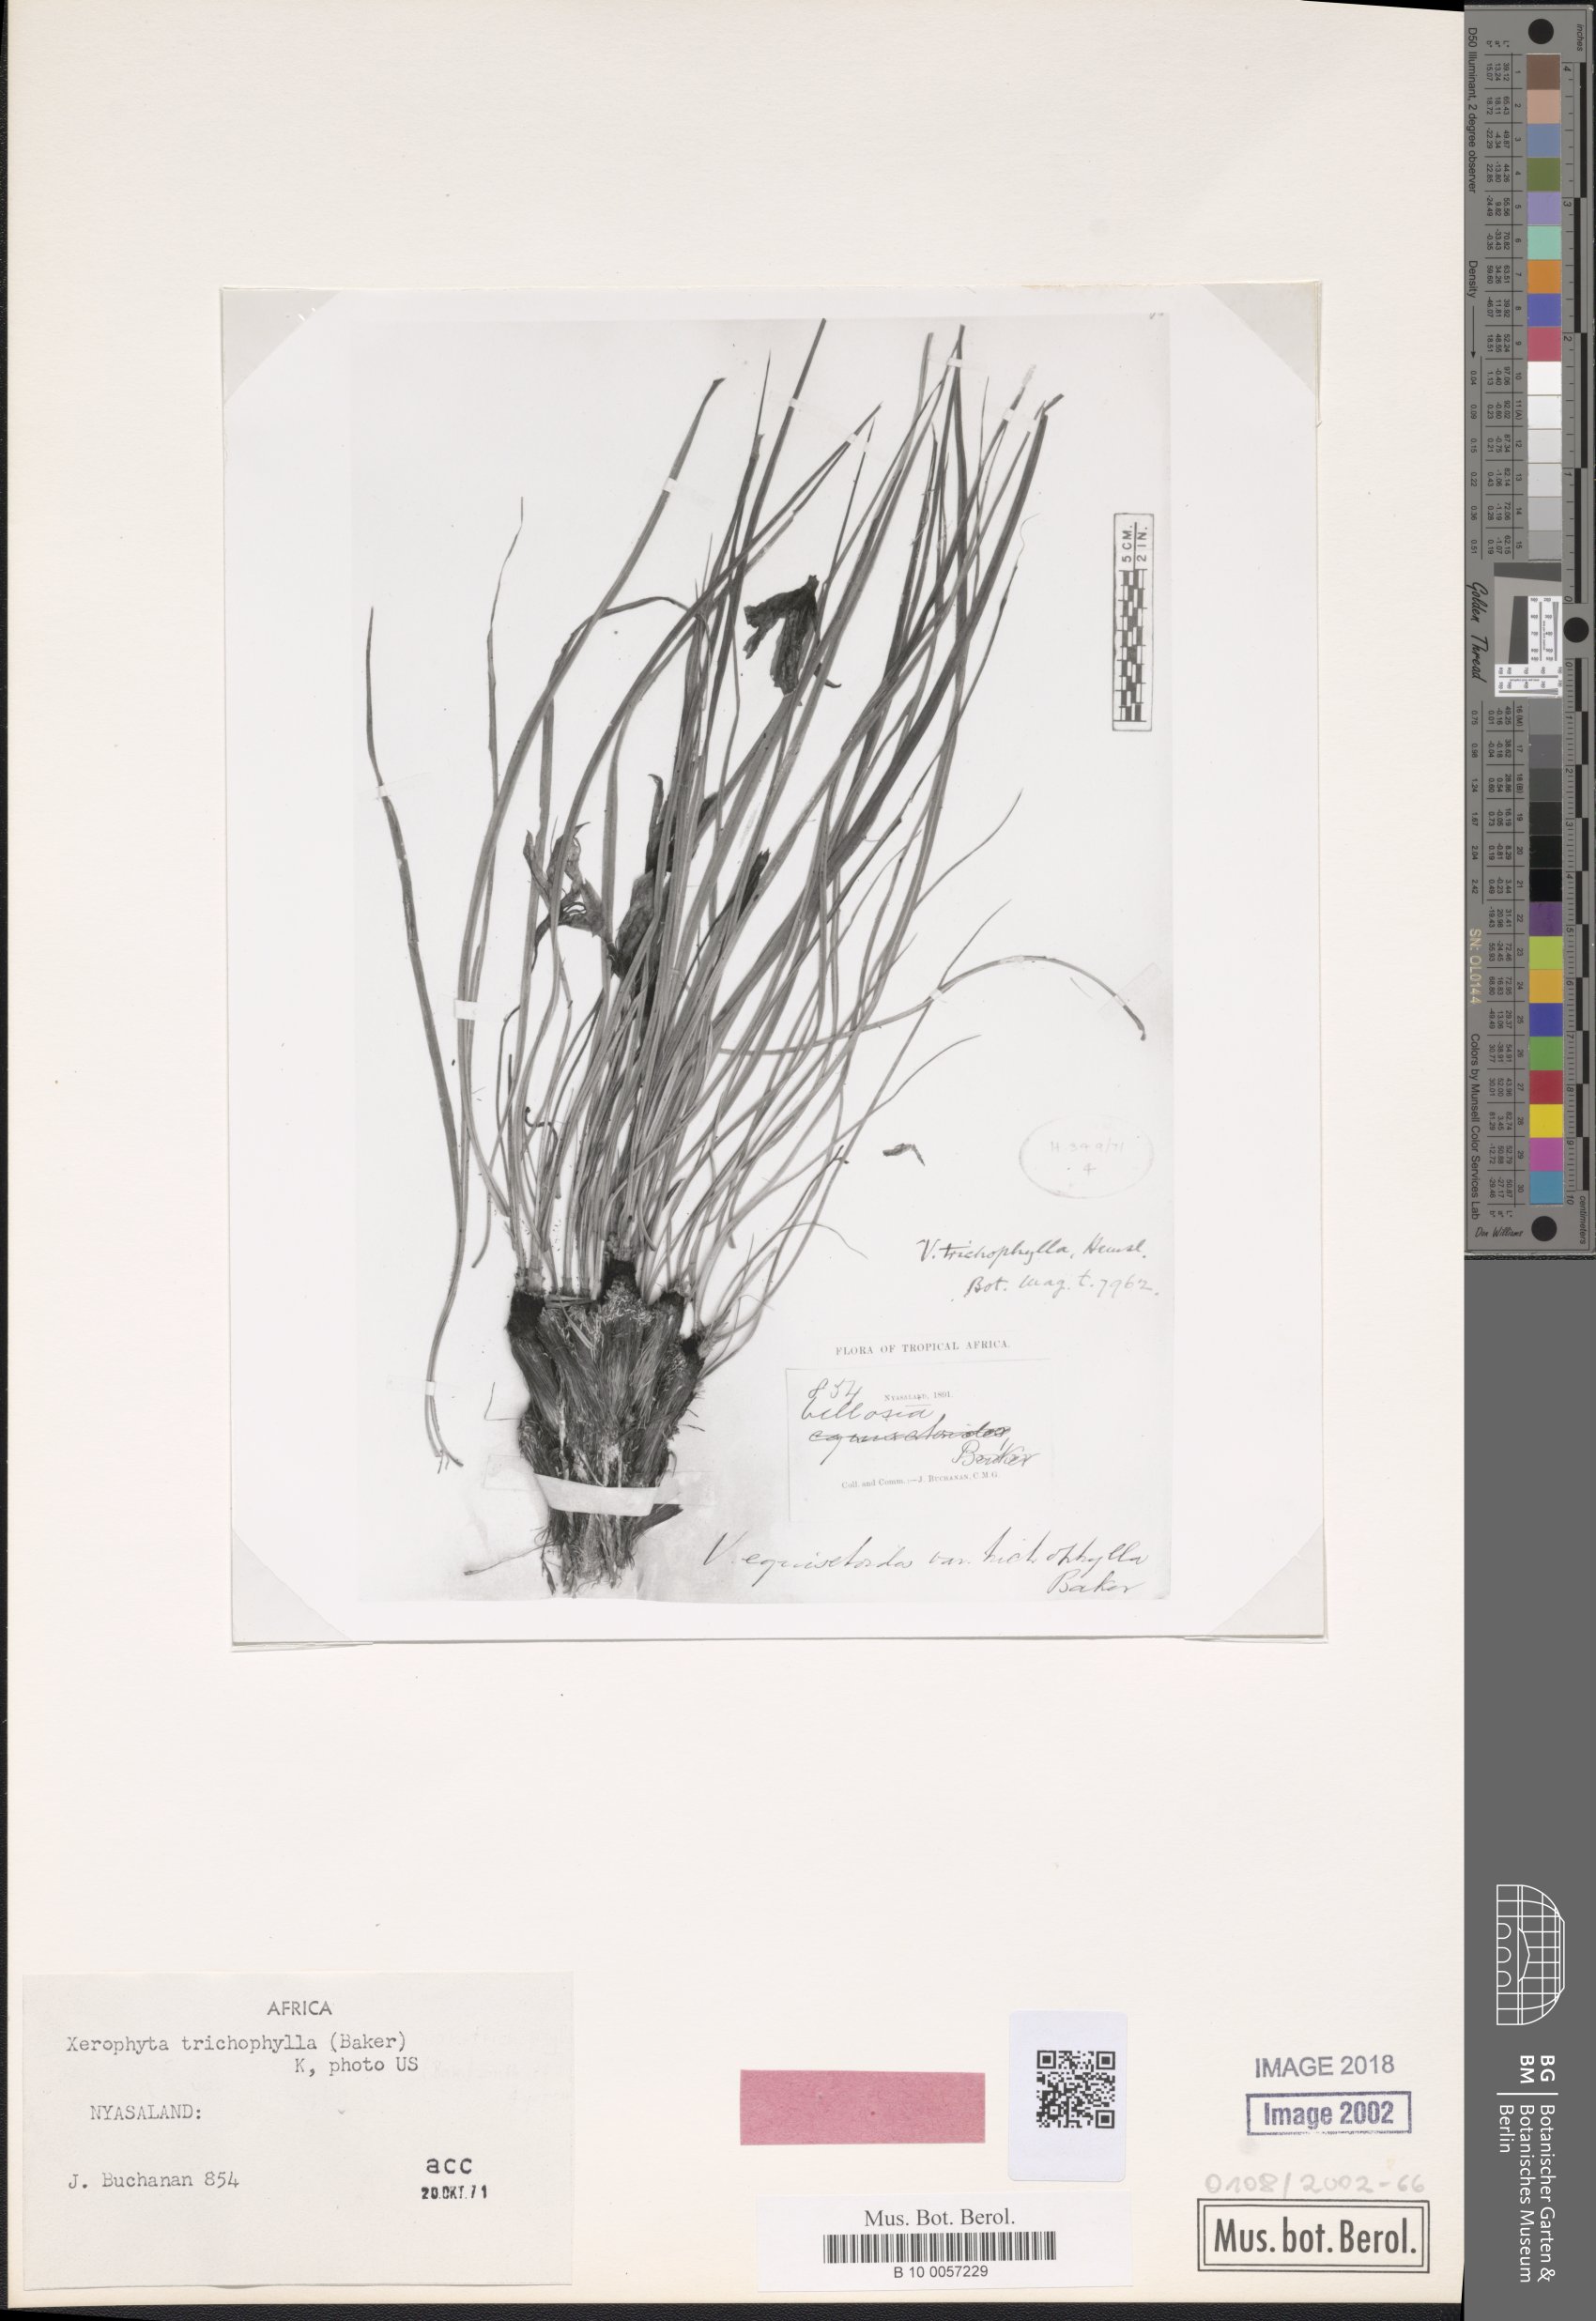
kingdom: Plantae
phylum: Tracheophyta
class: Liliopsida
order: Pandanales
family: Velloziaceae
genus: Xerophyta
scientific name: Xerophyta trichophylla
